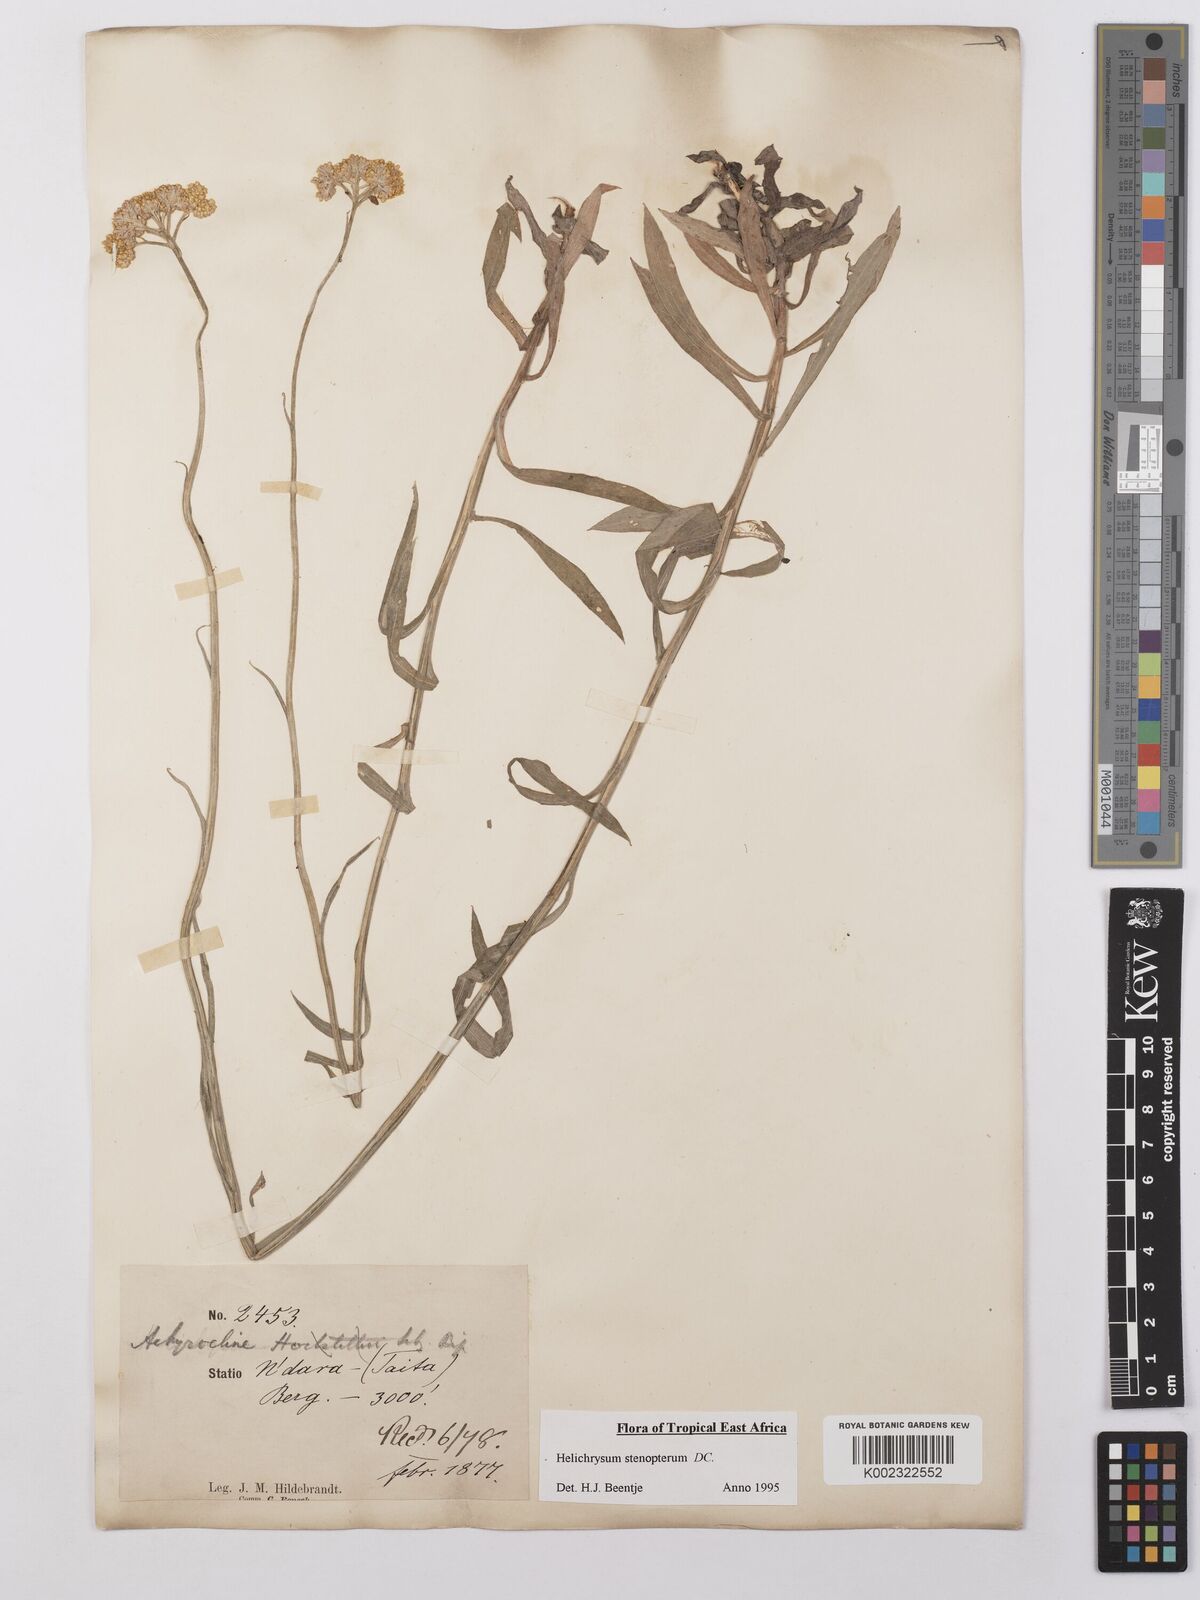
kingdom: Plantae
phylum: Tracheophyta
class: Magnoliopsida
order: Asterales
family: Asteraceae
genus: Helichrysum
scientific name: Helichrysum stenopterum
